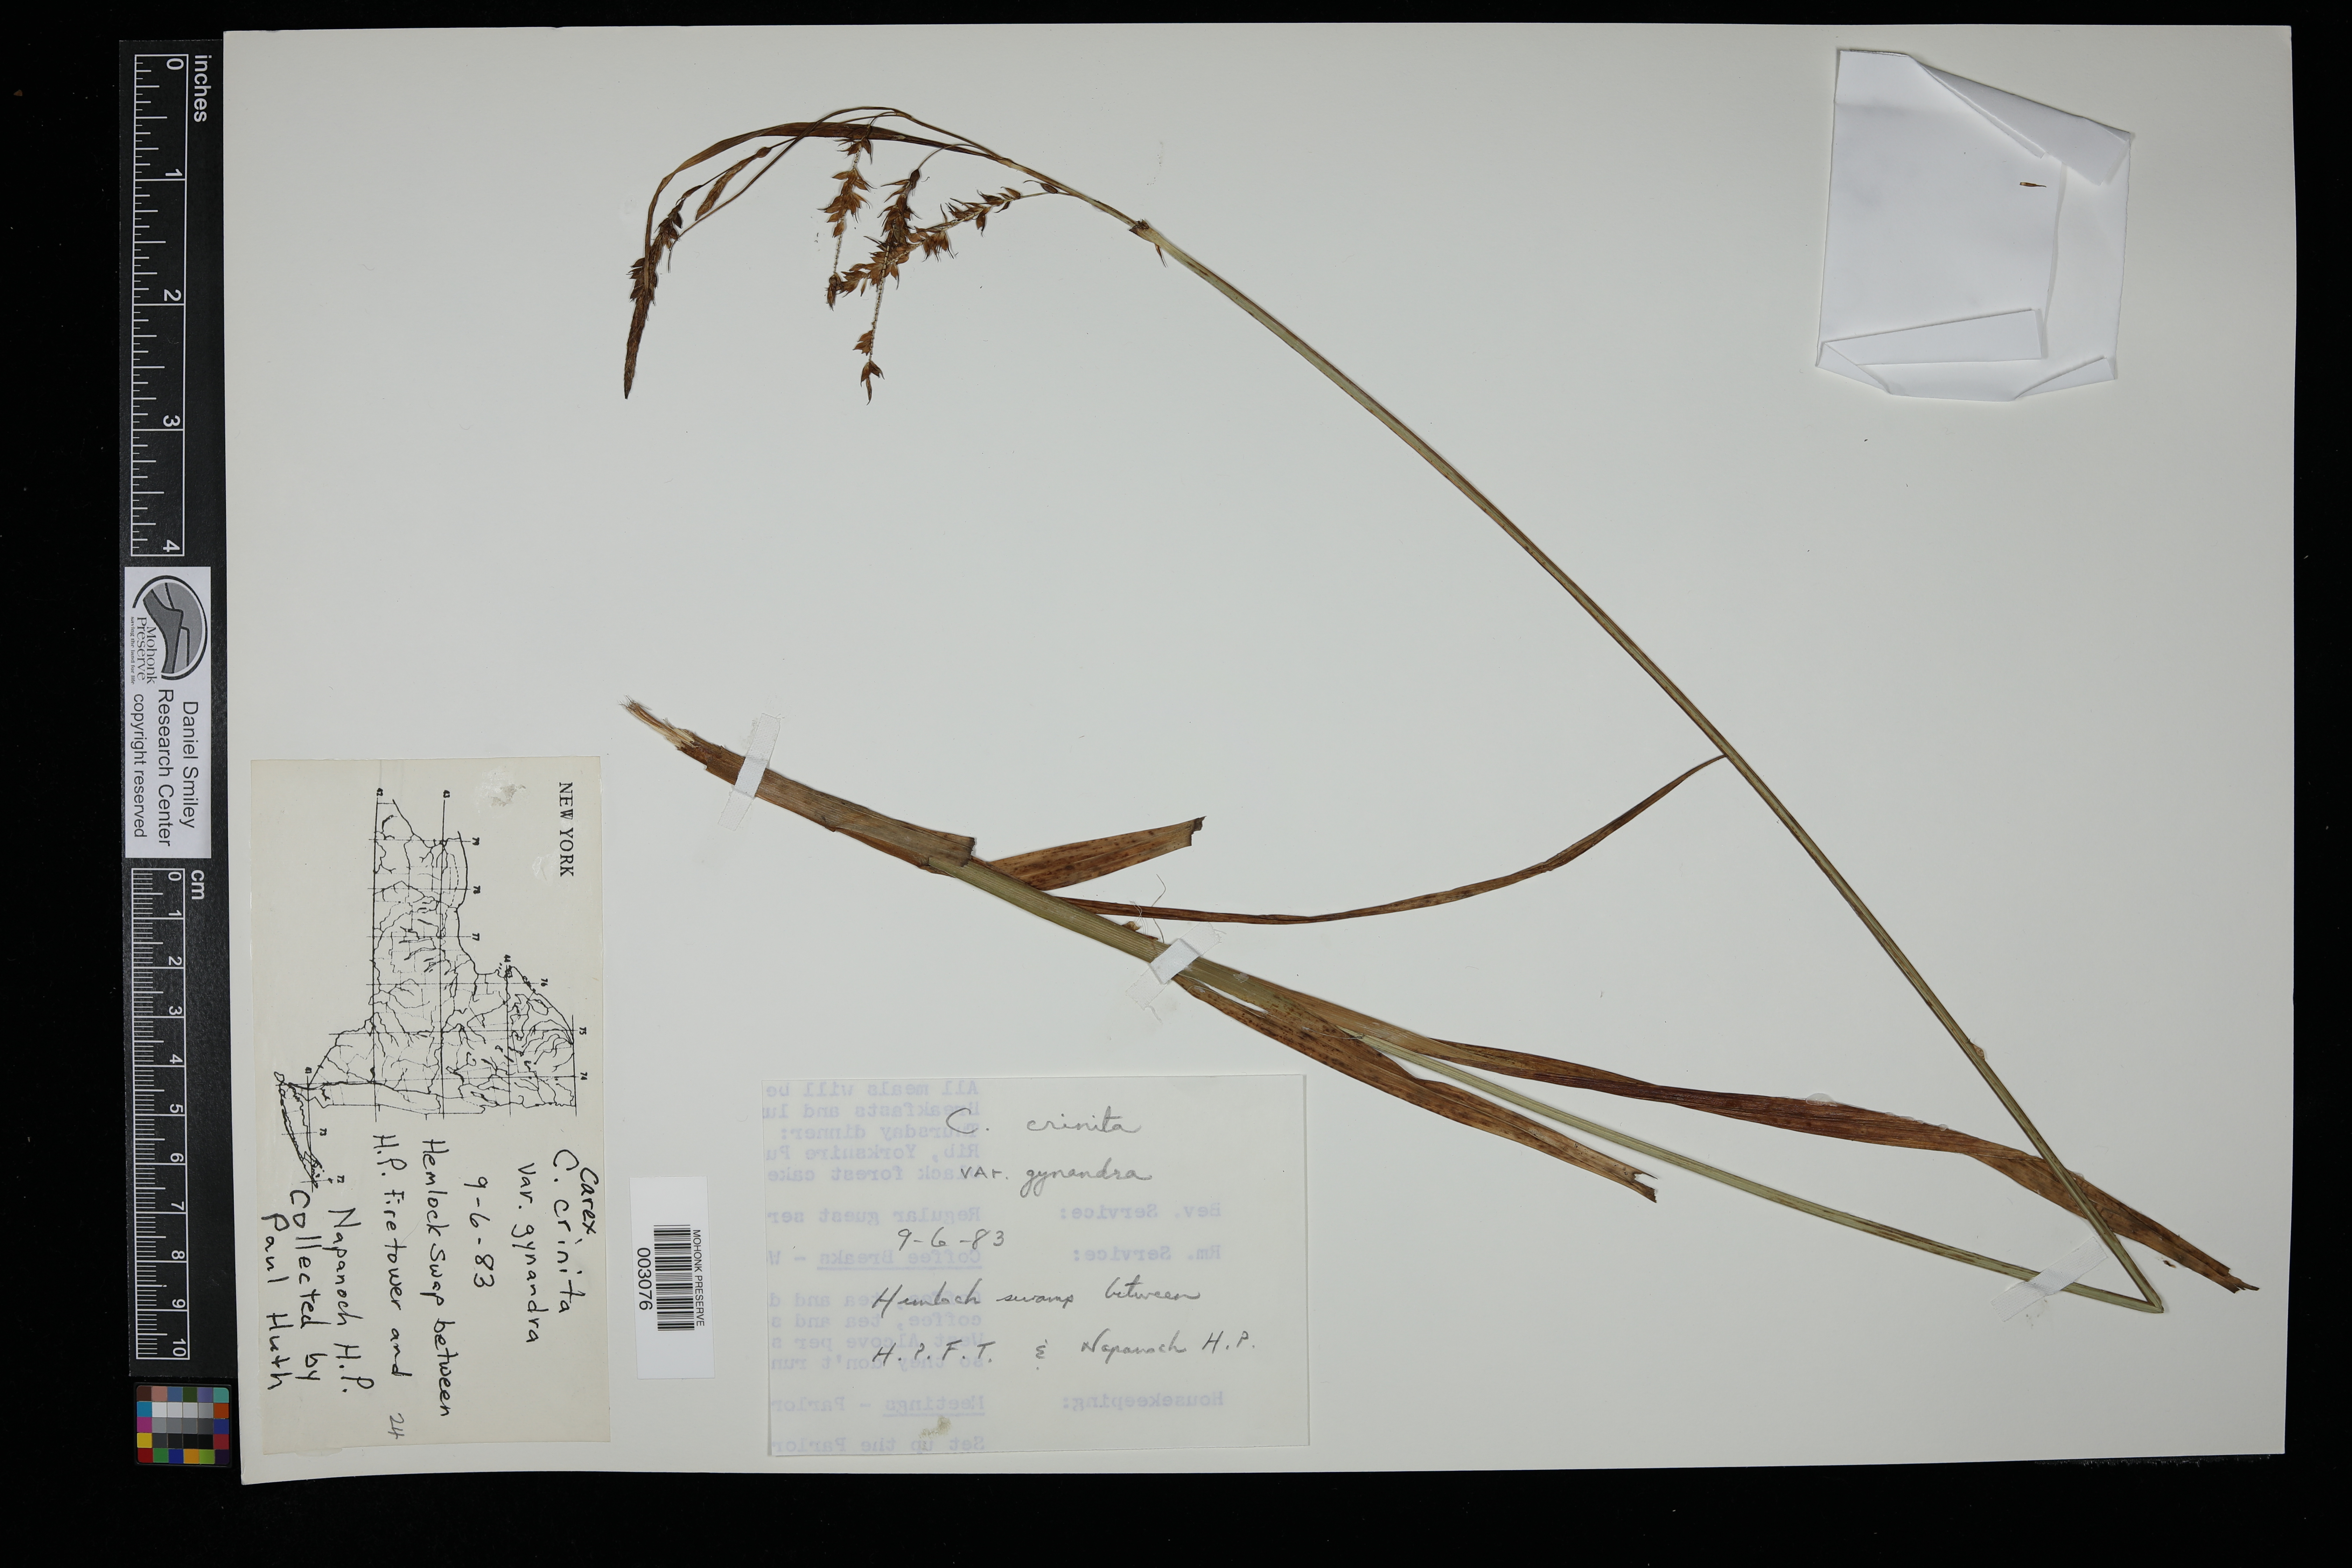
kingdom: Plantae
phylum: Tracheophyta
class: Liliopsida
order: Poales
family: Cyperaceae
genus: Carex
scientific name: Carex gynandra
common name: Nodding sedge
